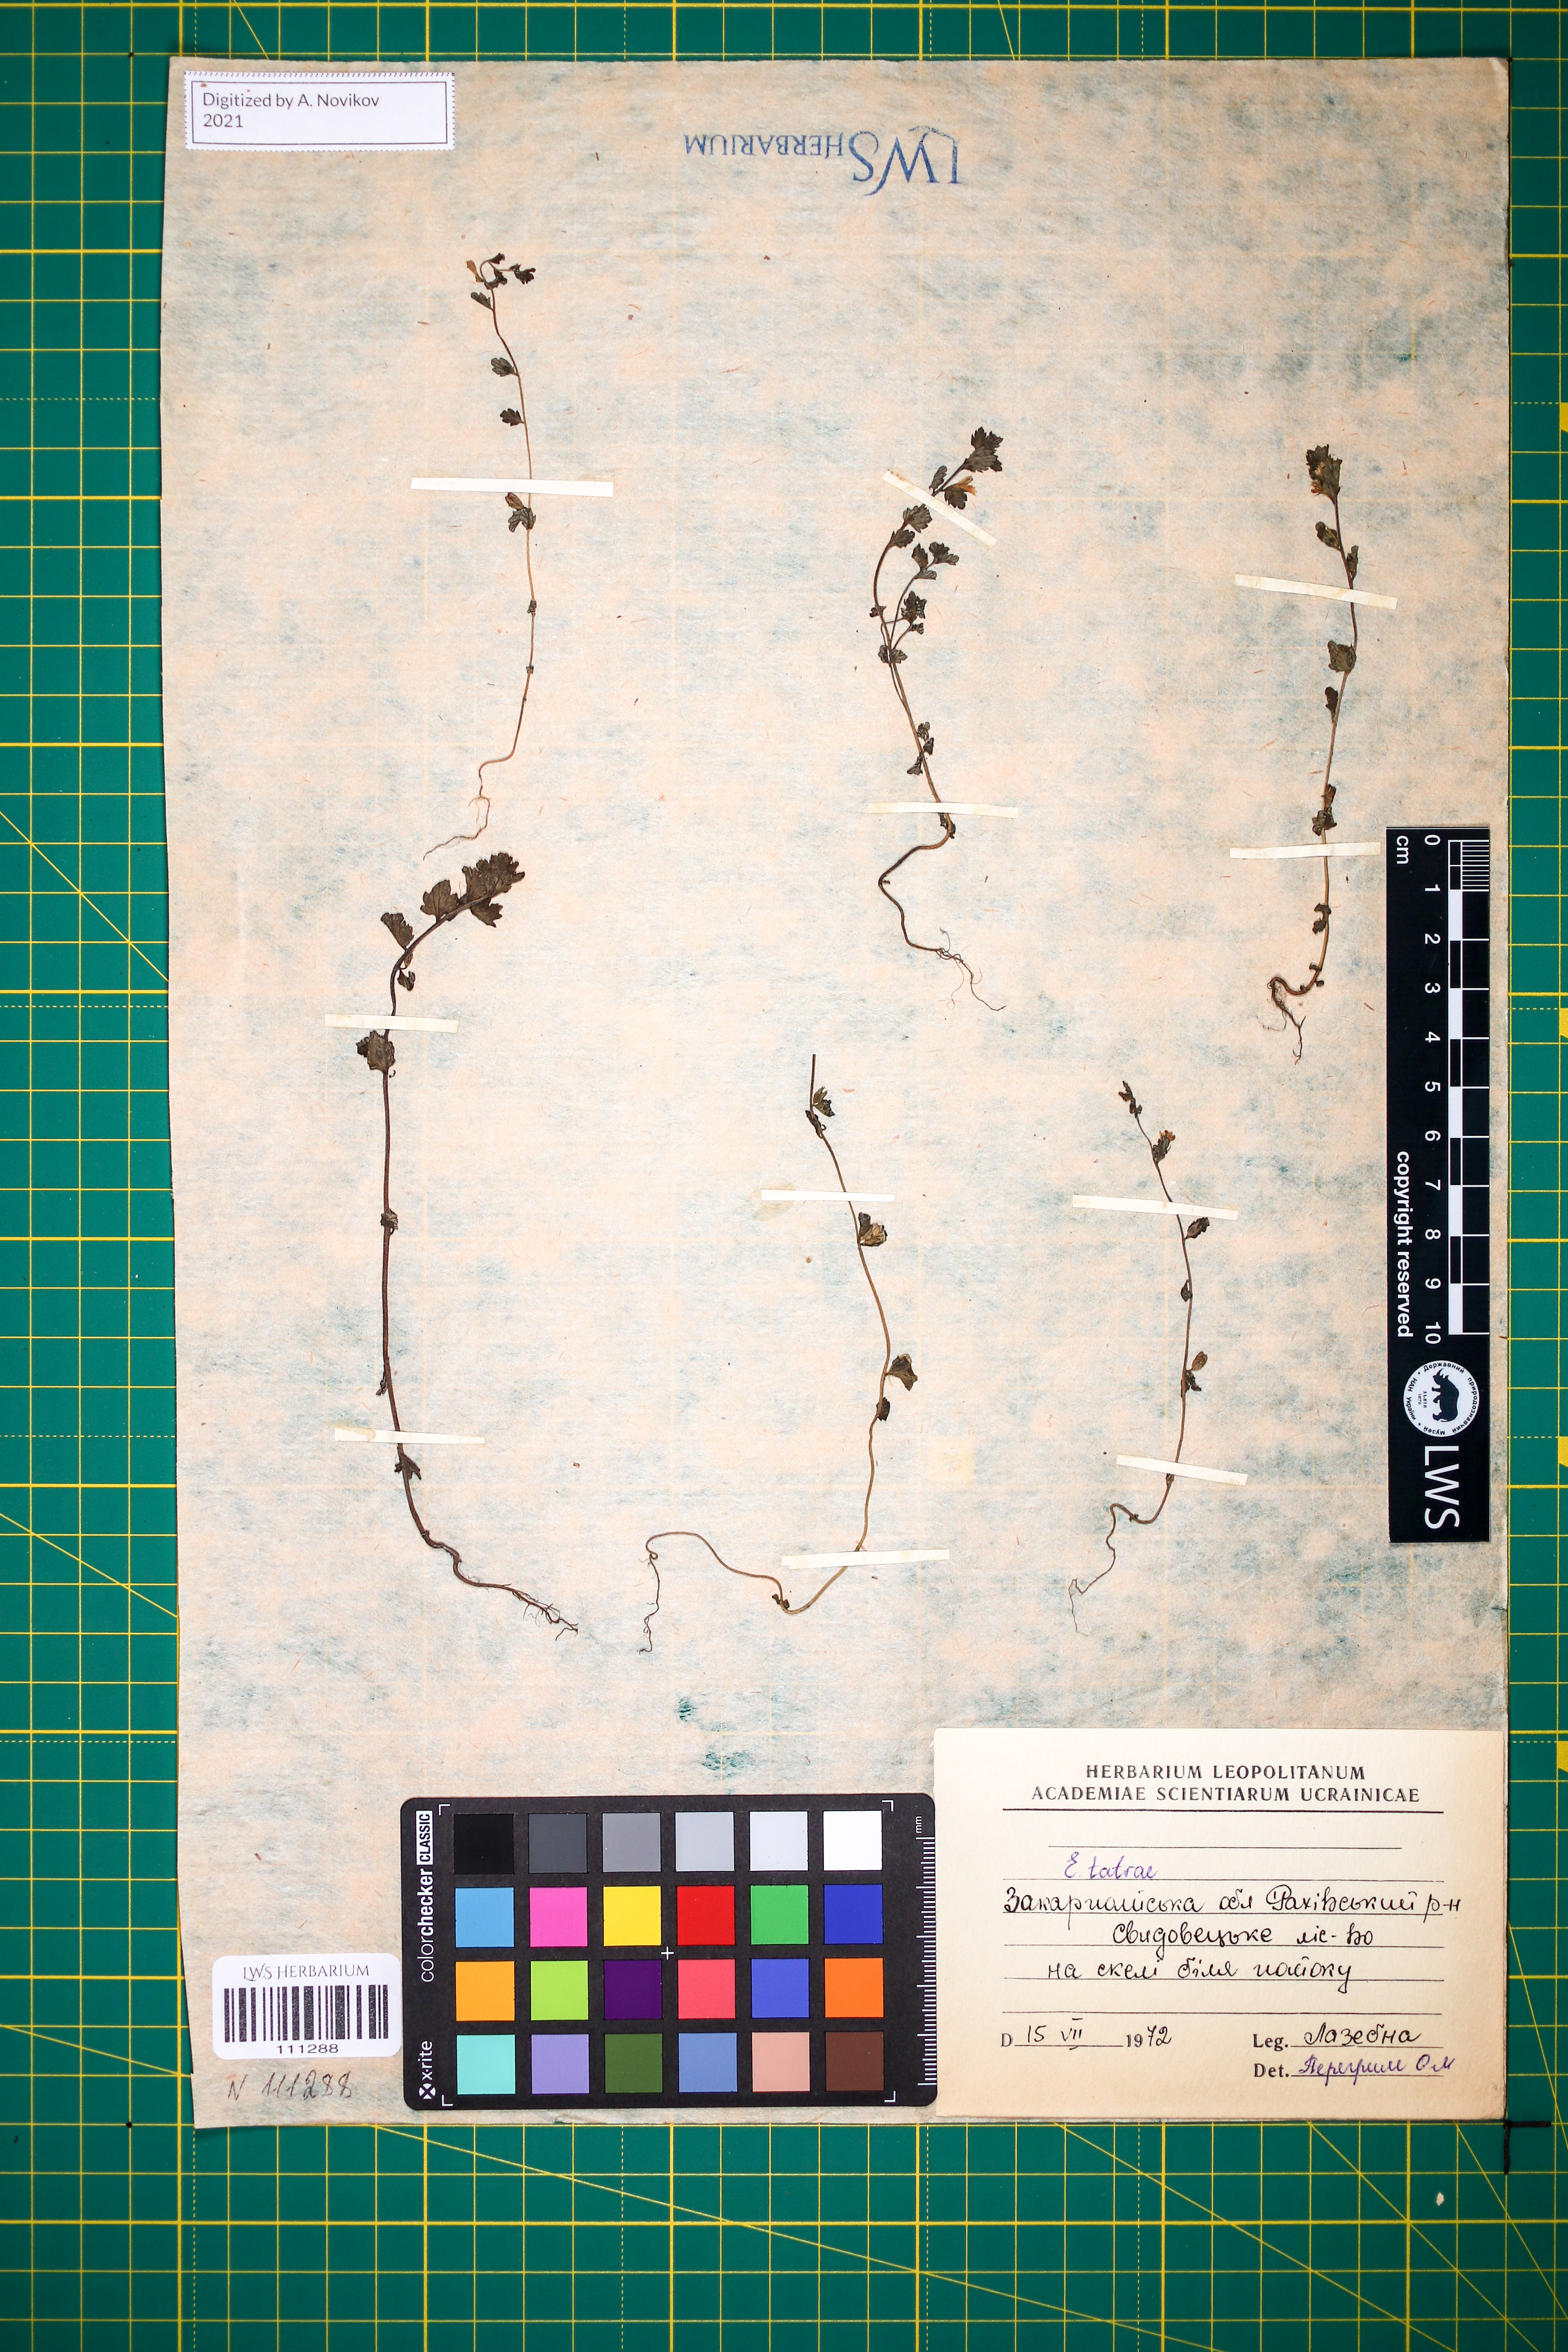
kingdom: Plantae
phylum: Tracheophyta
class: Magnoliopsida
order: Lamiales
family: Orobanchaceae
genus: Euphrasia
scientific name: Euphrasia tatrae
